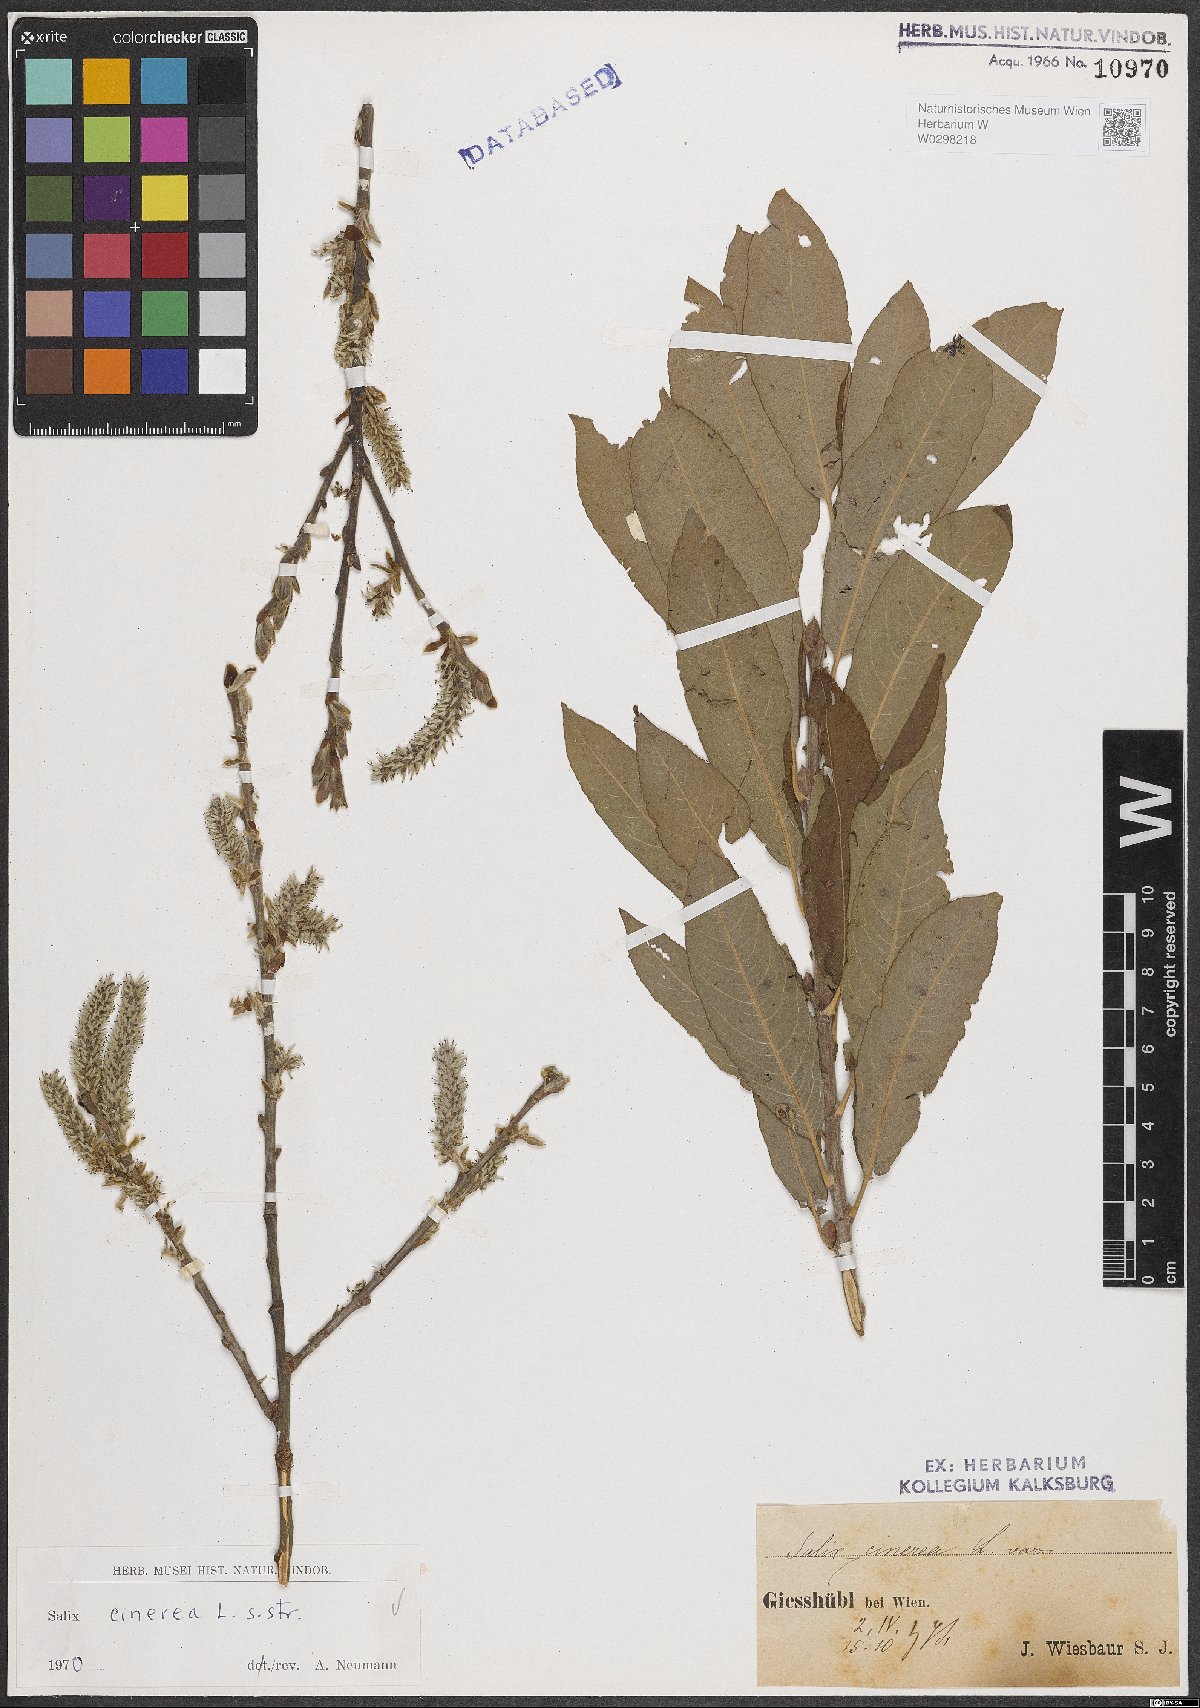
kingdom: Plantae
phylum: Tracheophyta
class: Magnoliopsida
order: Malpighiales
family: Salicaceae
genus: Salix
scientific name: Salix cinerea
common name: Common sallow
